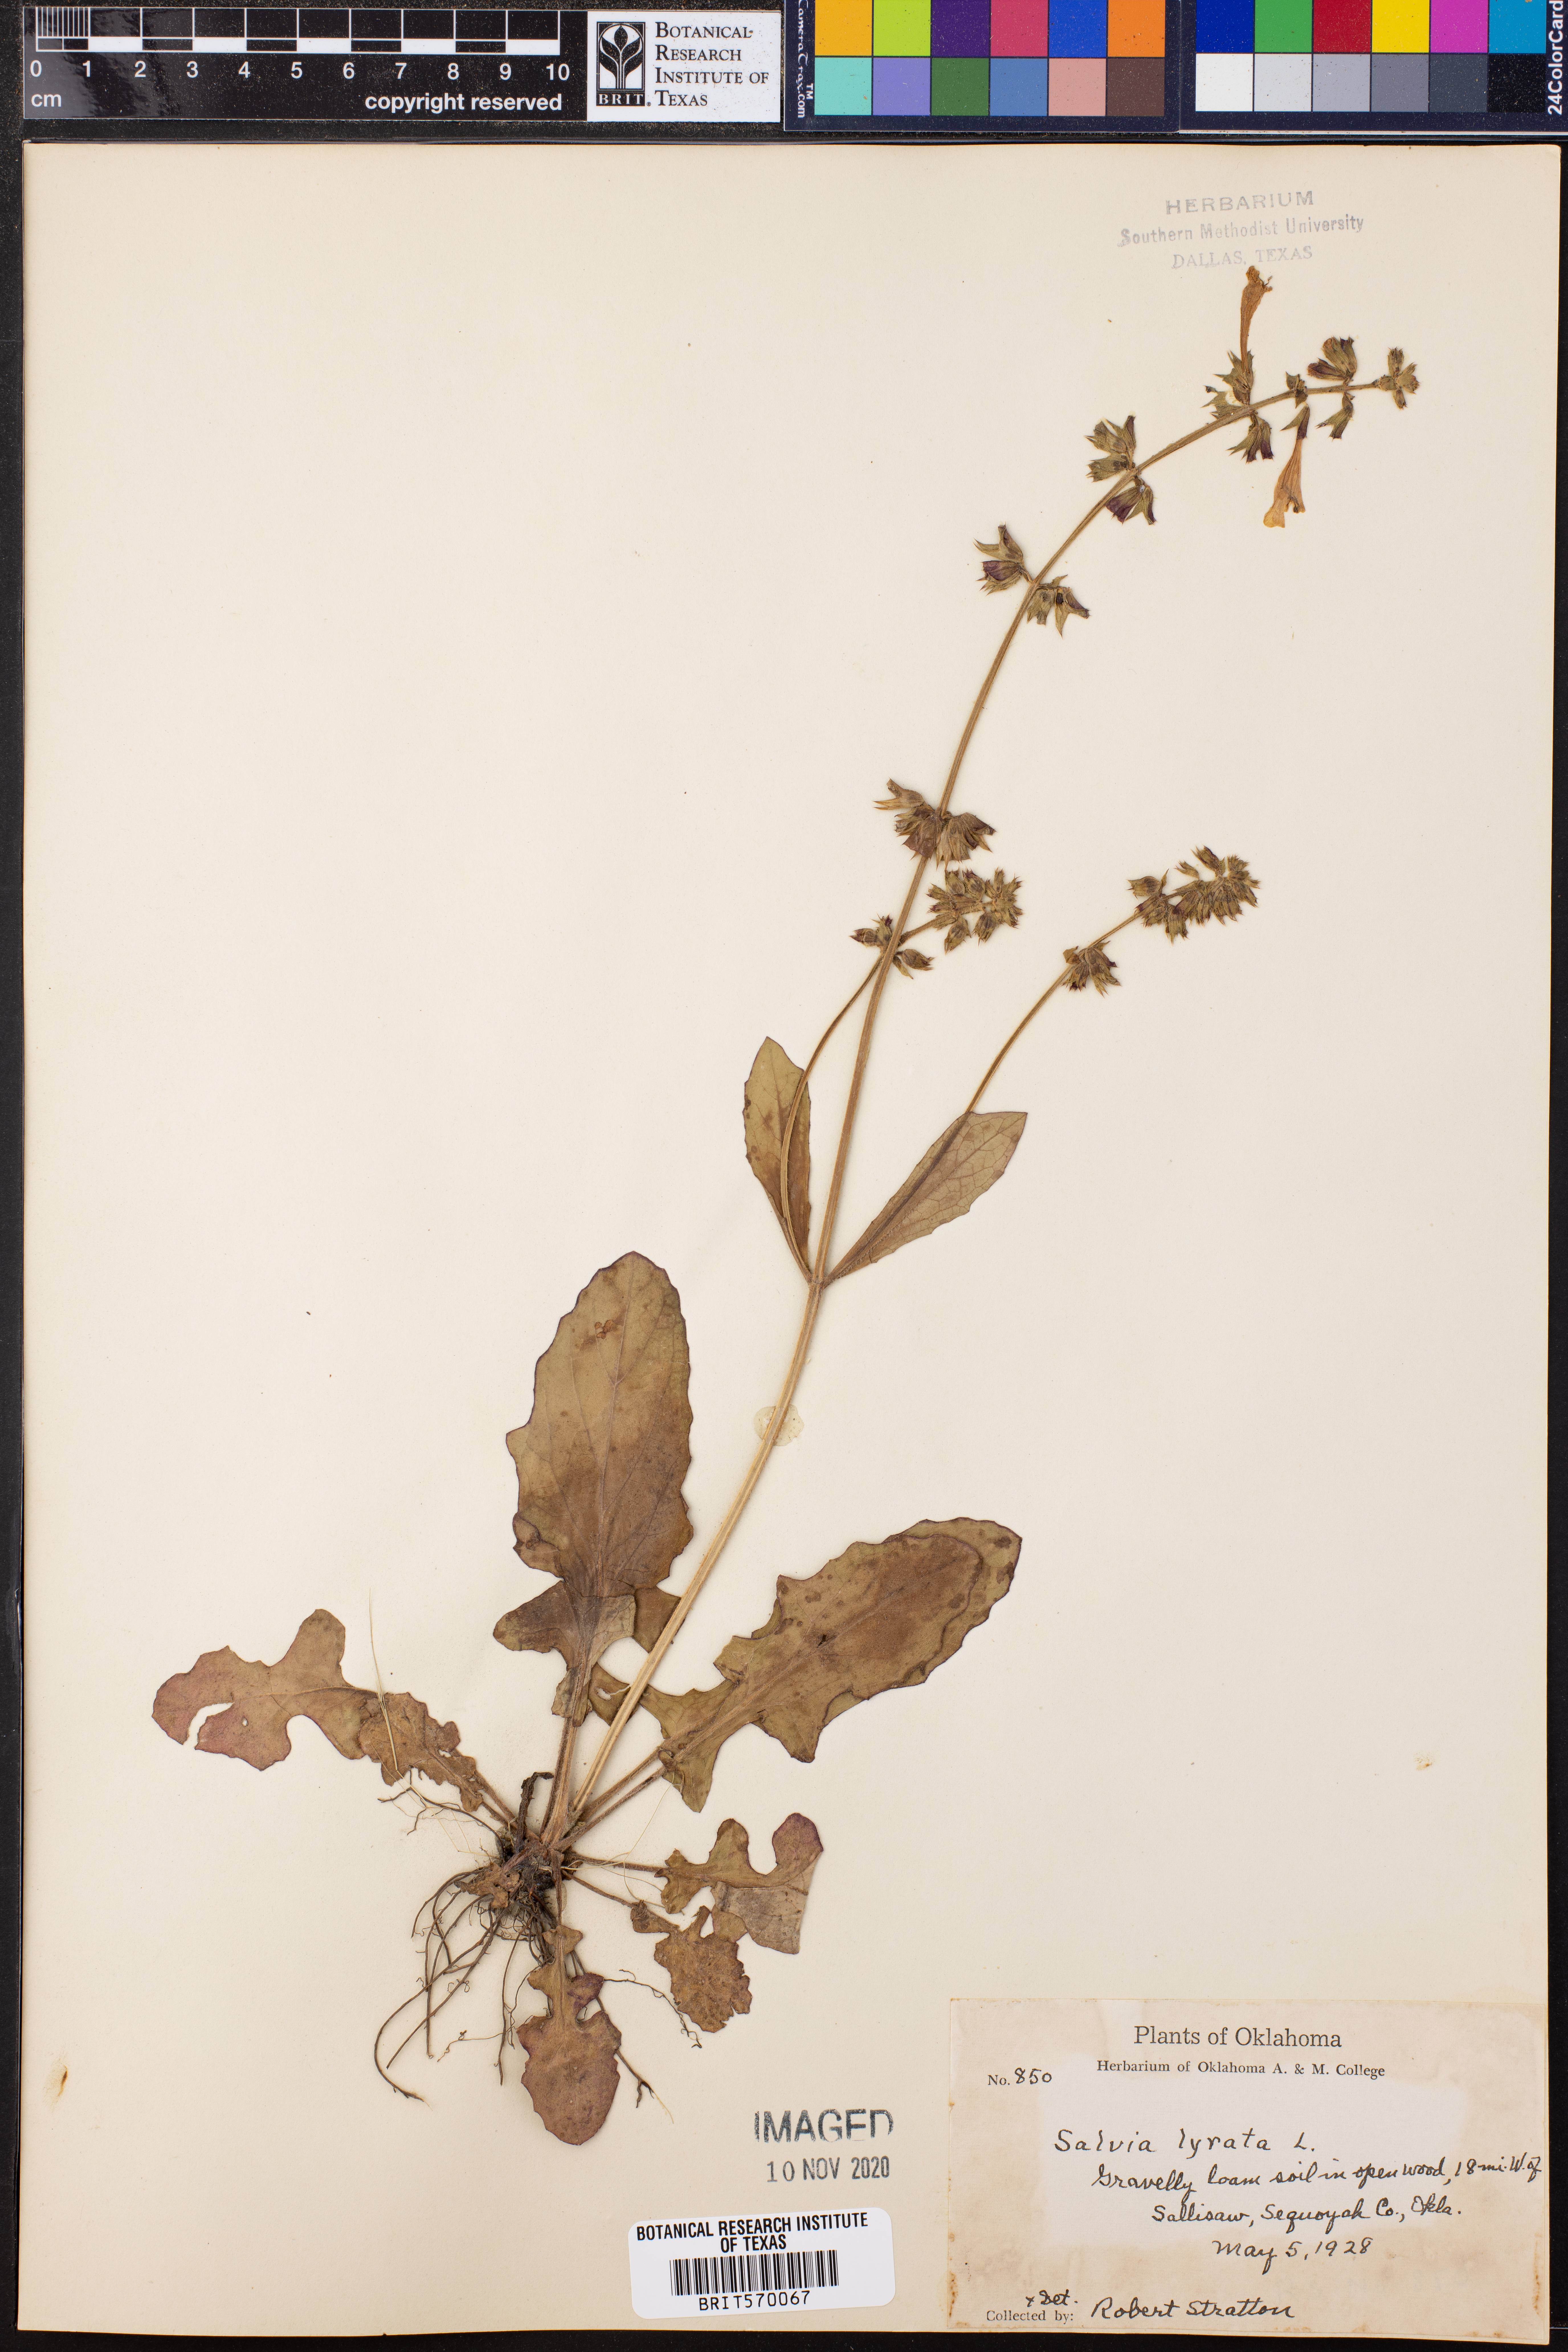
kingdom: Plantae
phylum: Tracheophyta
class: Magnoliopsida
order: Lamiales
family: Lamiaceae
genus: Salvia
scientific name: Salvia lyrata
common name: Cancerweed
